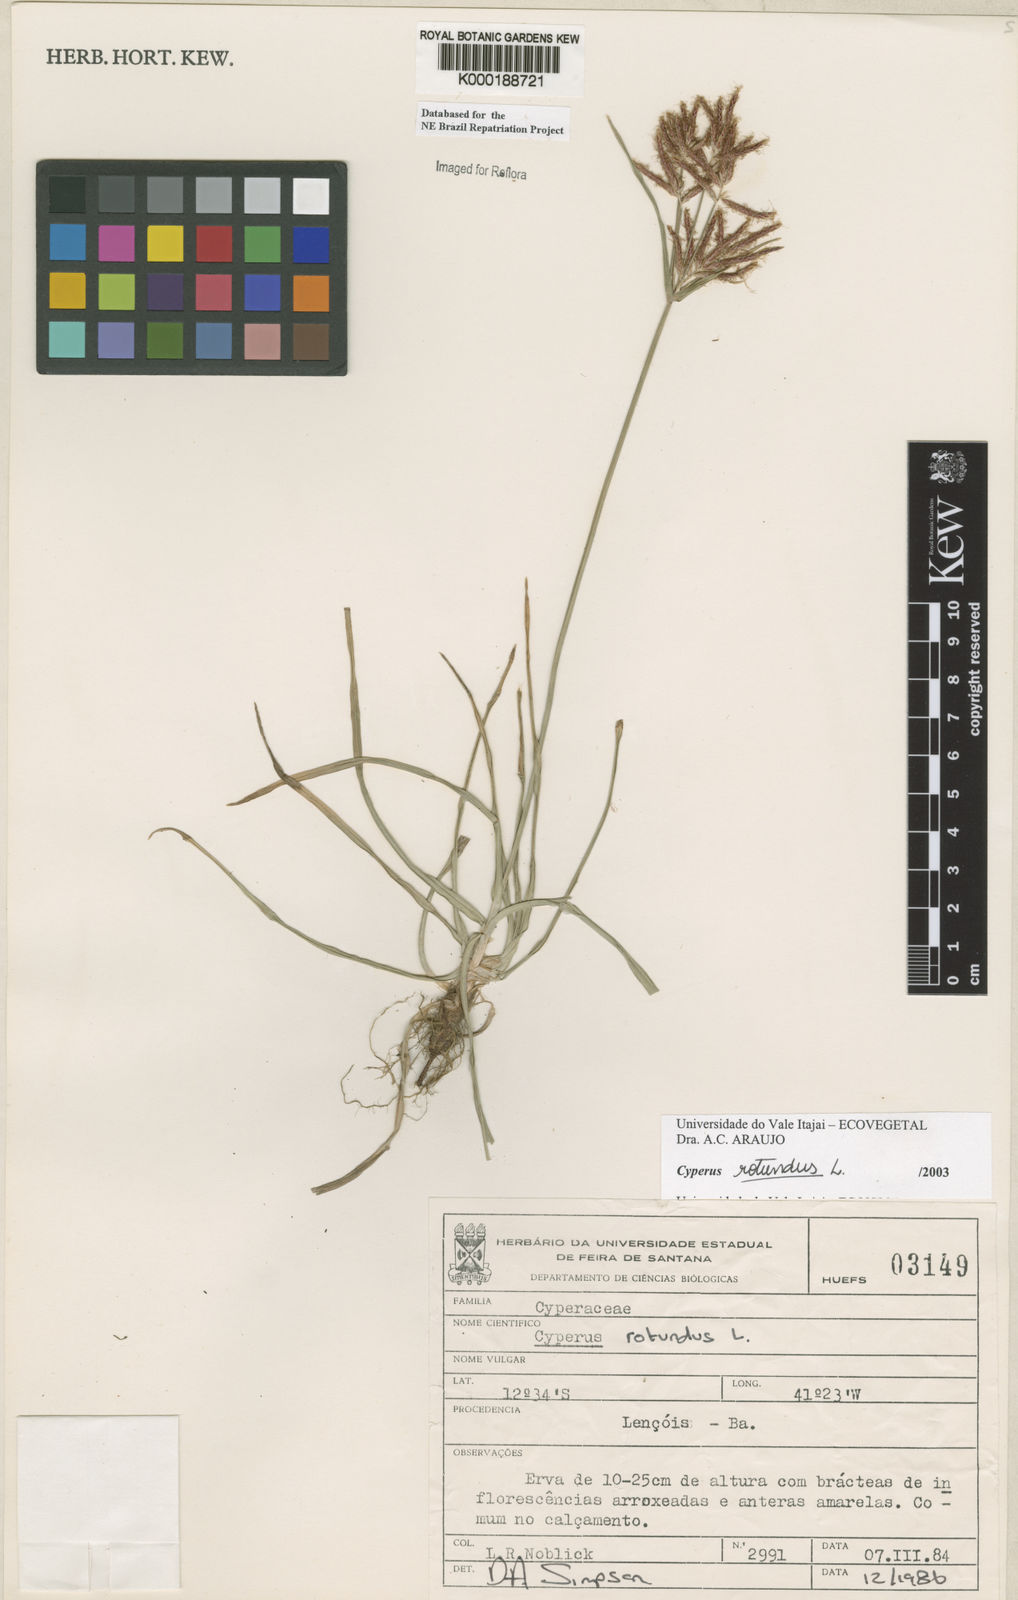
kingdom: Plantae
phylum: Tracheophyta
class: Liliopsida
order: Poales
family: Cyperaceae
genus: Cyperus
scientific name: Cyperus rotundus
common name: Nutgrass
